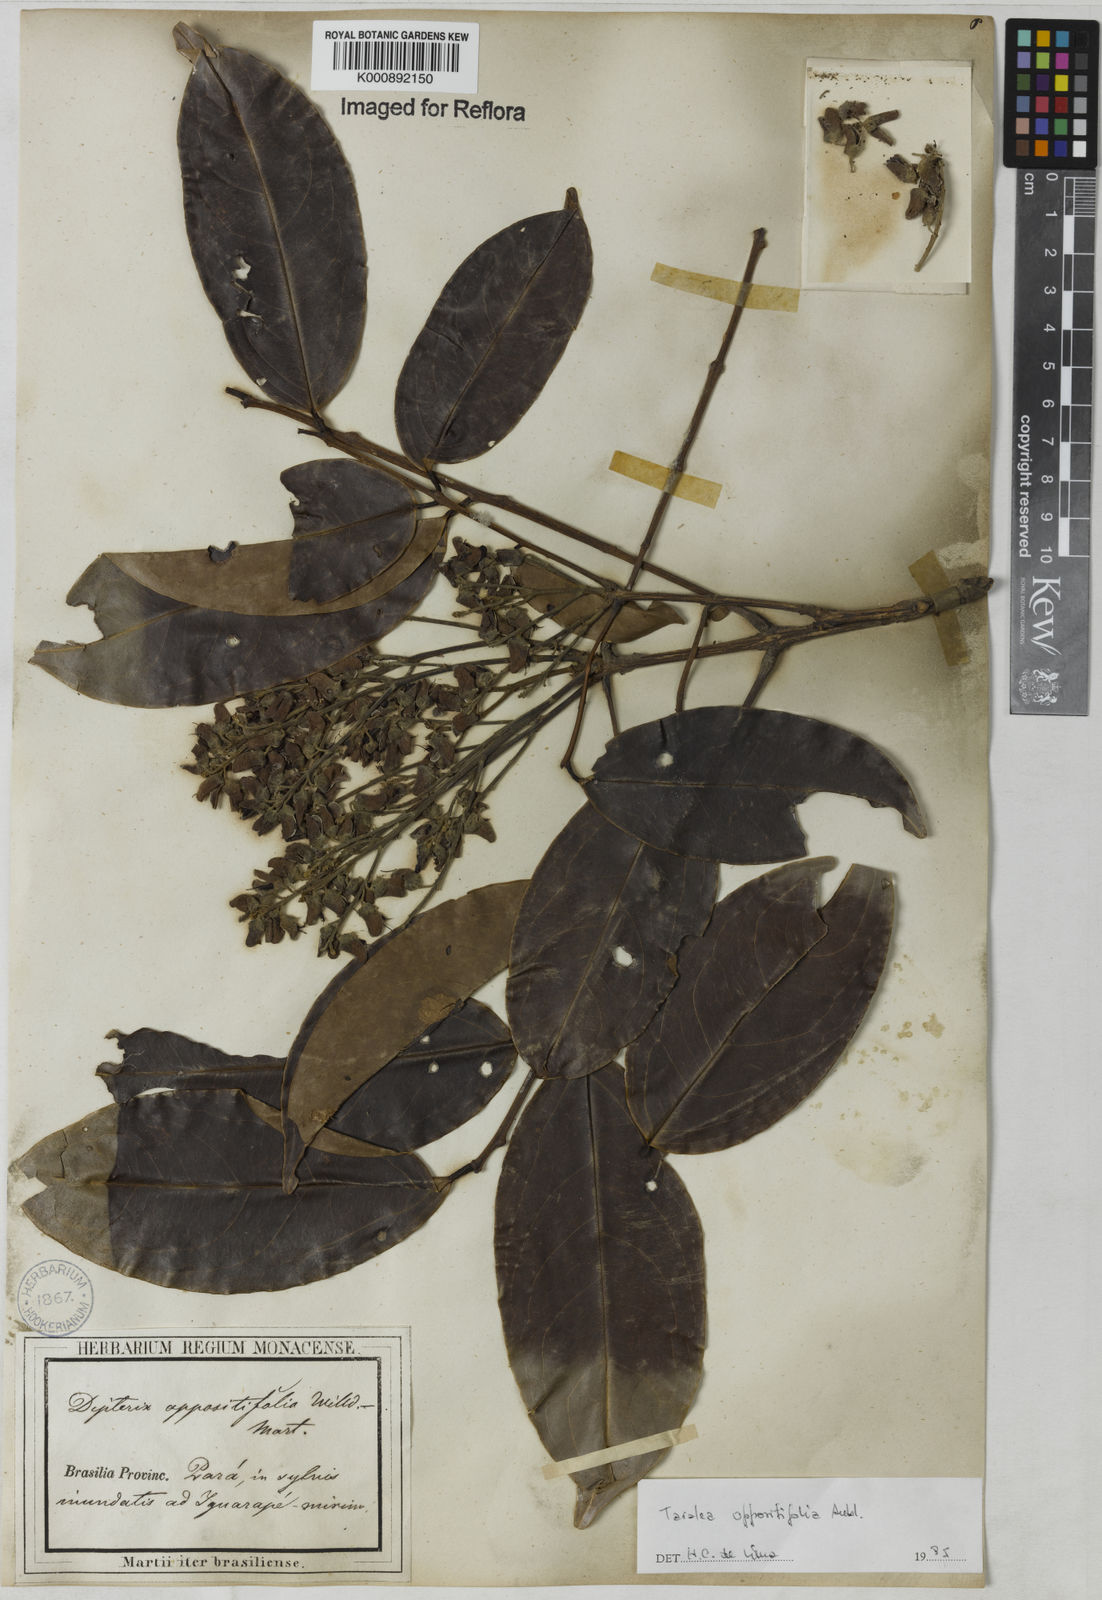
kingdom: Plantae
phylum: Tracheophyta
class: Magnoliopsida
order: Fabales
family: Fabaceae
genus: Taralea
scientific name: Taralea oppositifolia
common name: Tonka
